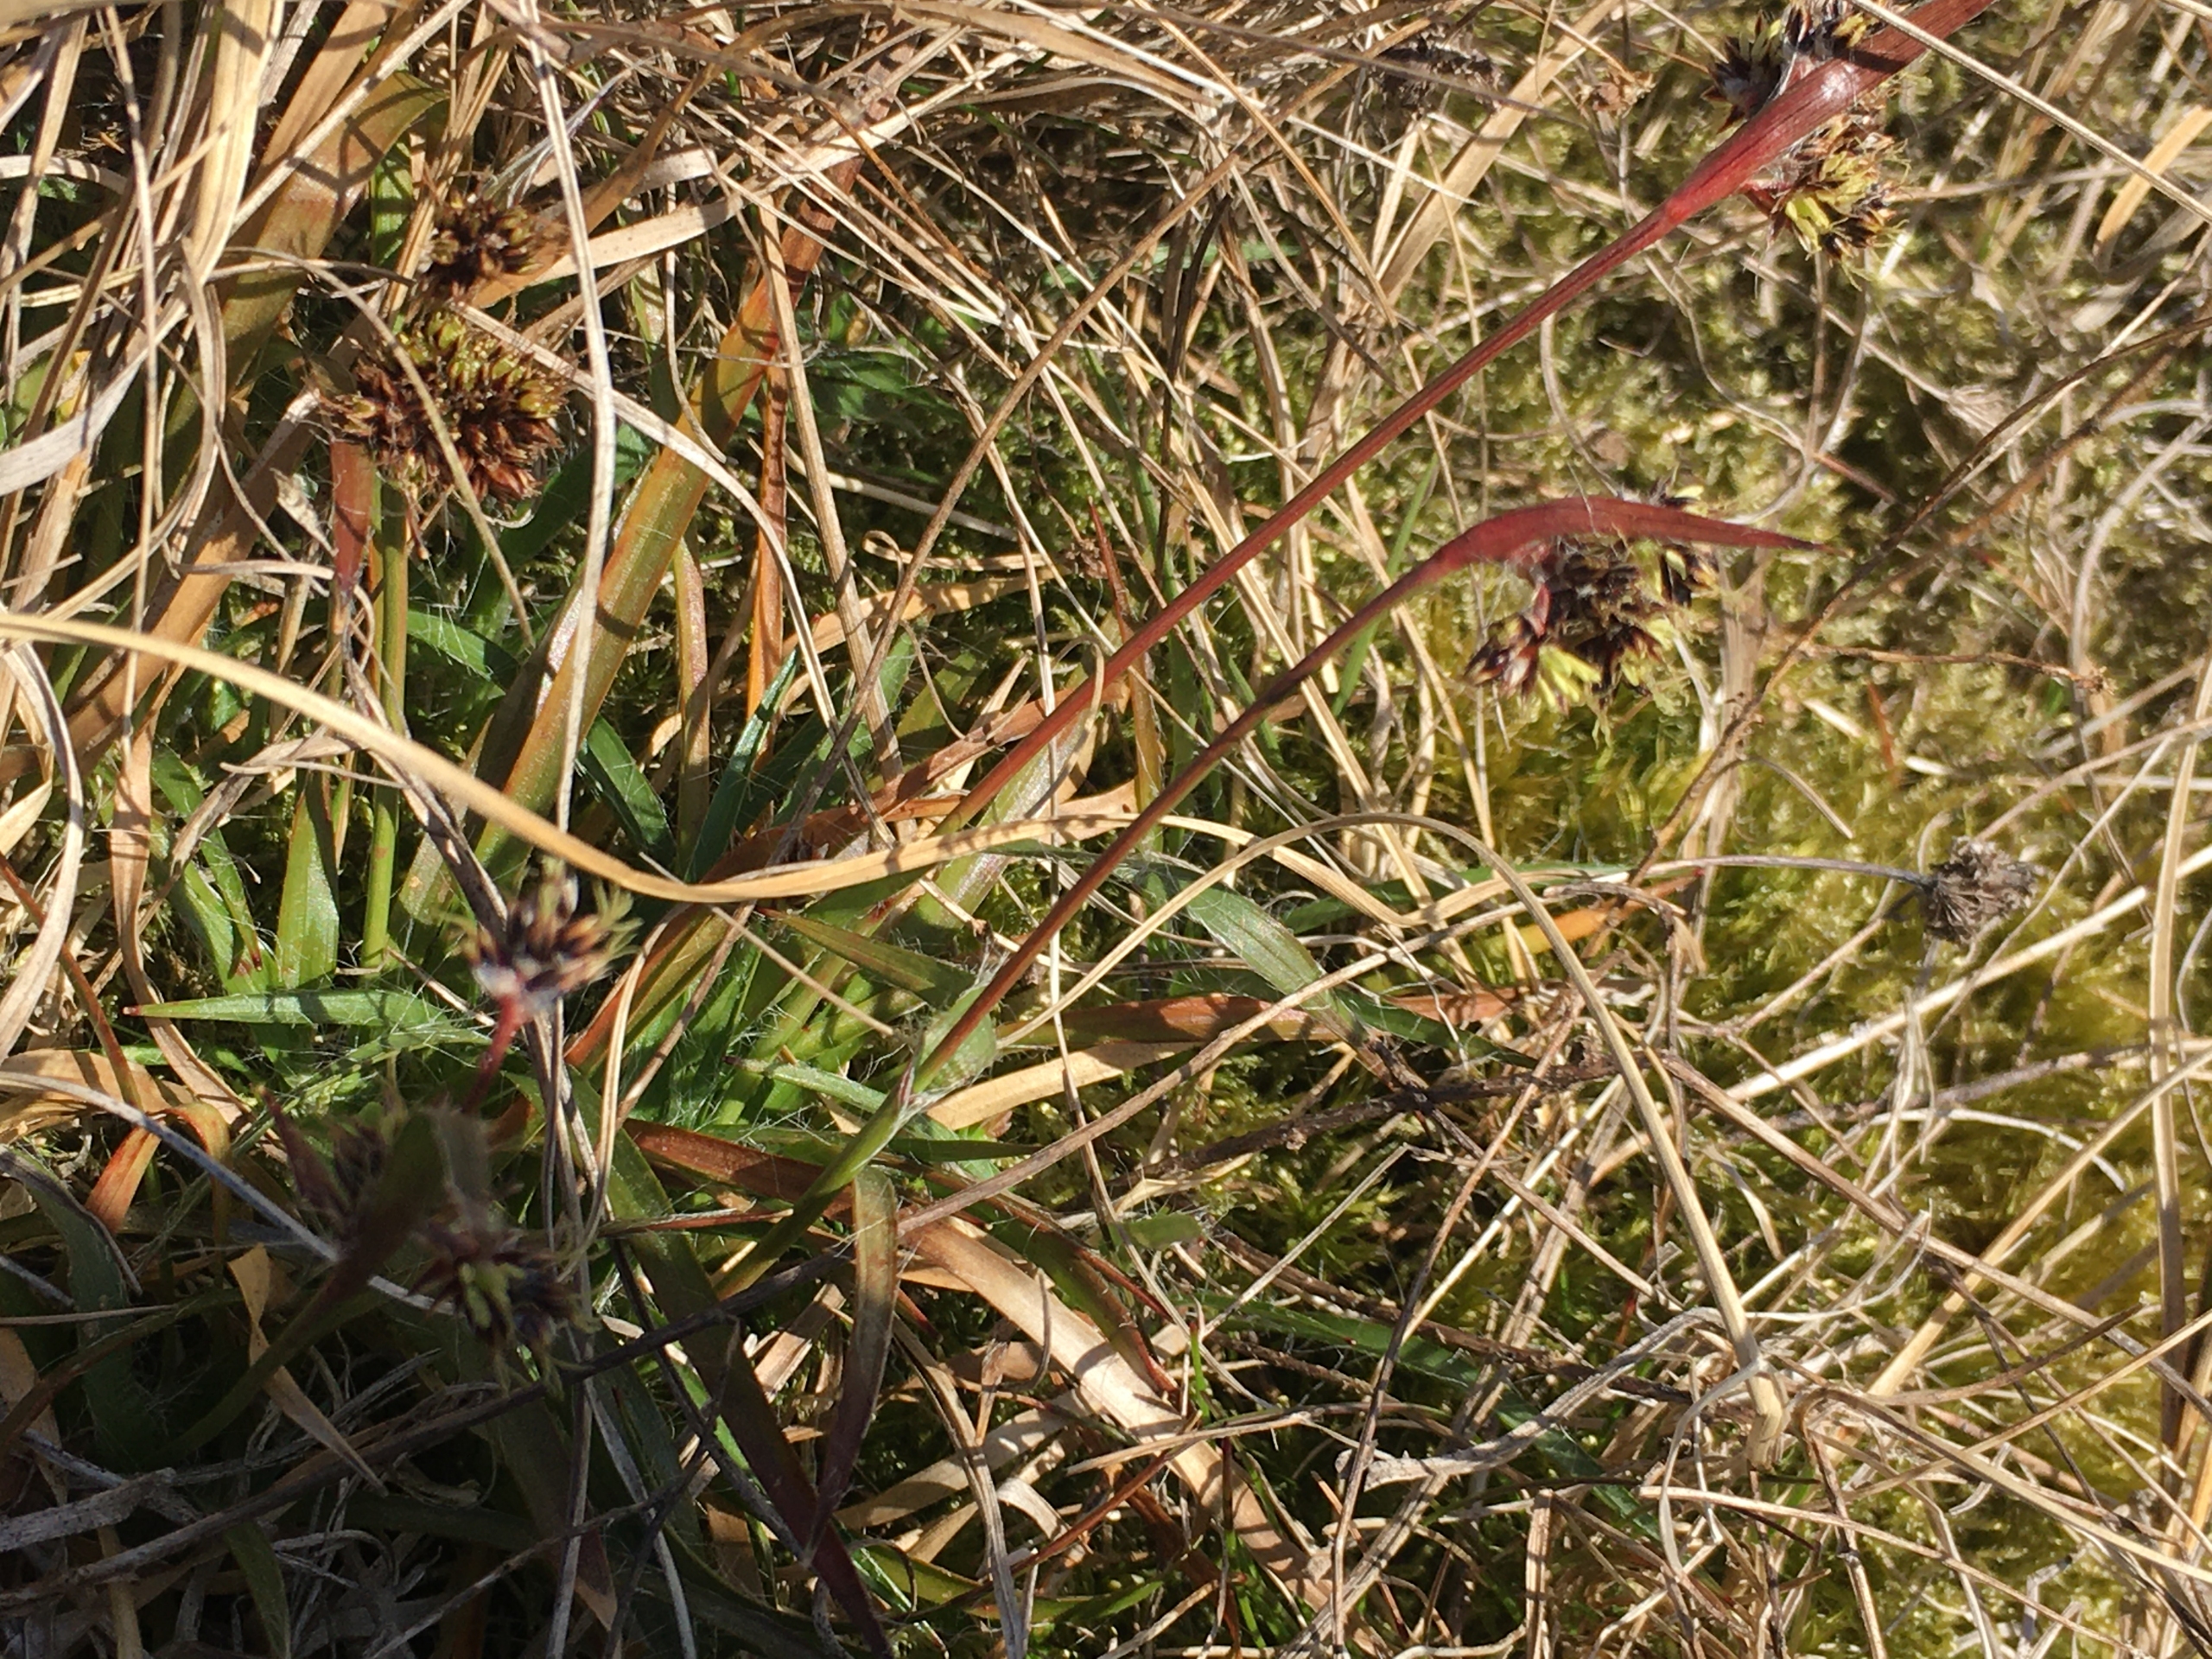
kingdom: Plantae
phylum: Tracheophyta
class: Liliopsida
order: Poales
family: Juncaceae
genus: Luzula
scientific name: Luzula campestris
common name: Mark-frytle
